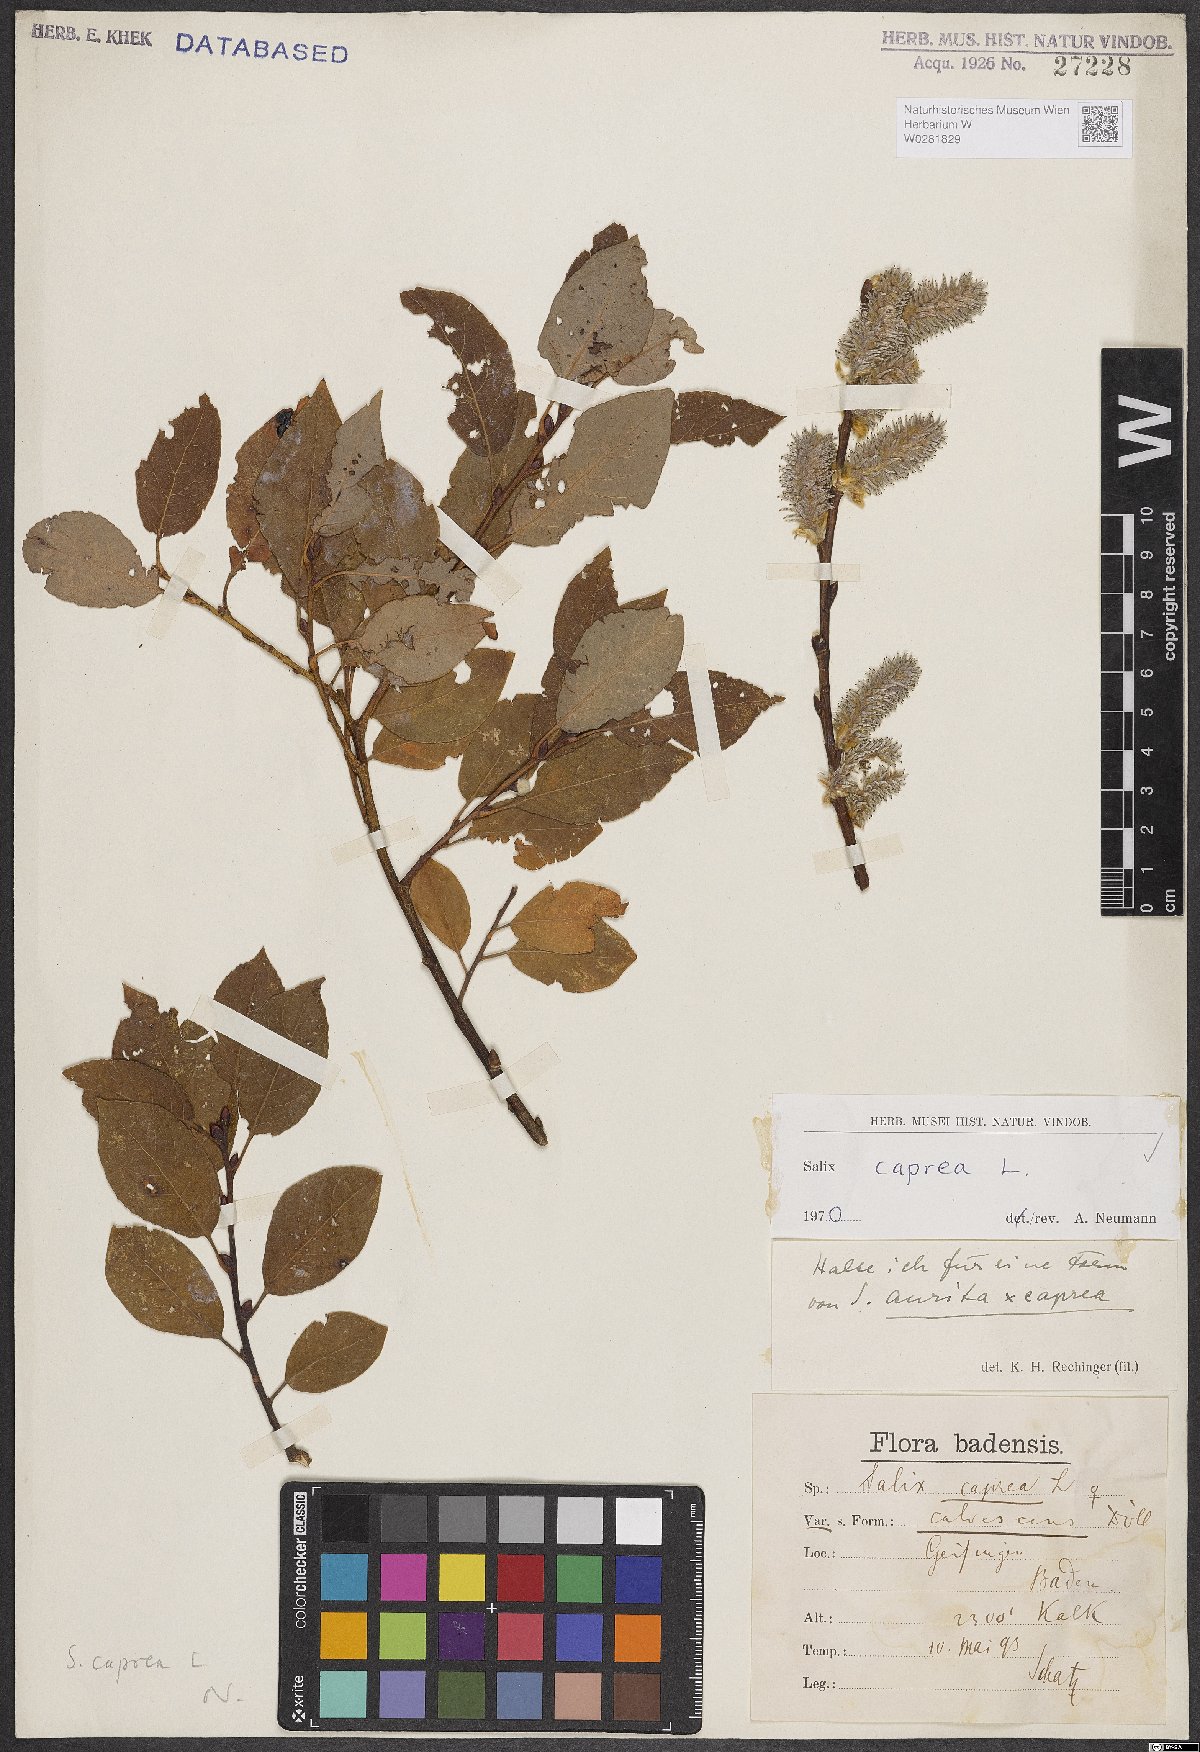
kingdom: Plantae
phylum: Tracheophyta
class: Magnoliopsida
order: Malpighiales
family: Salicaceae
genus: Salix
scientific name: Salix caprea
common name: Goat willow
